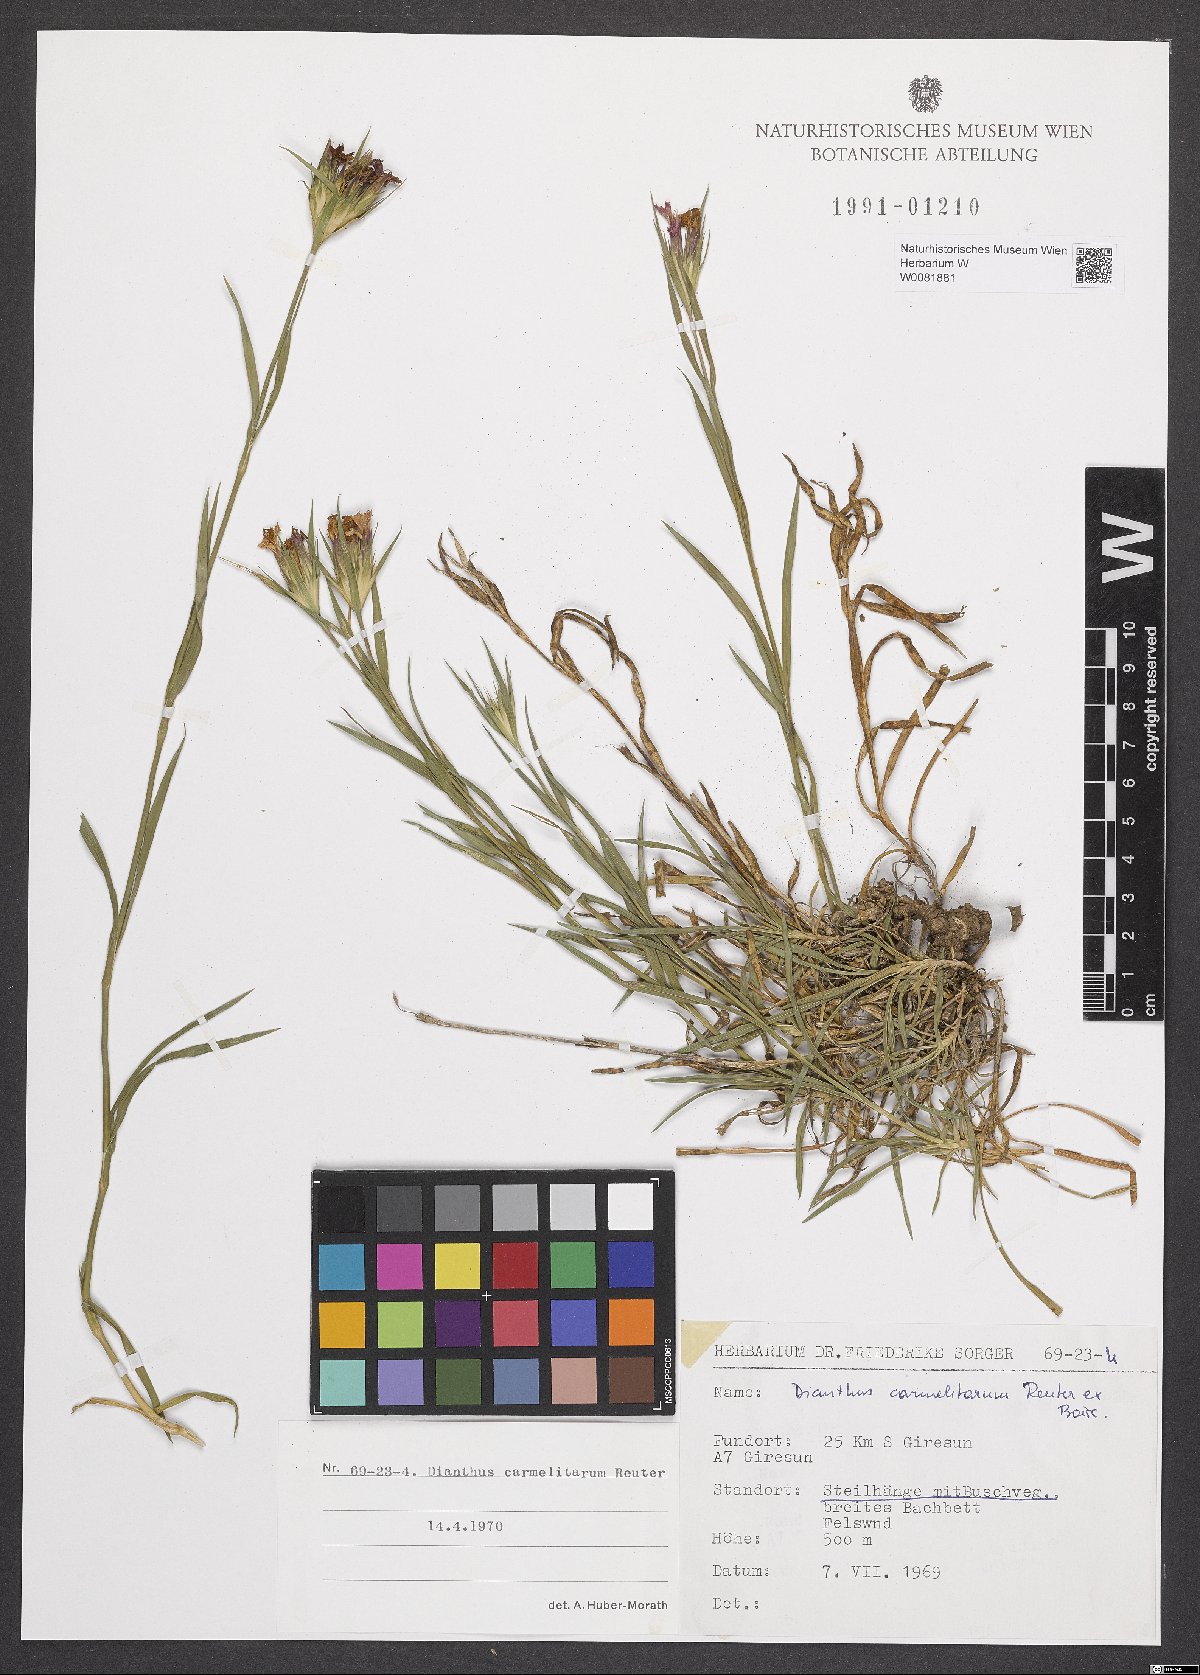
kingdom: Plantae
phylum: Tracheophyta
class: Magnoliopsida
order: Caryophyllales
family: Caryophyllaceae
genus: Dianthus
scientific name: Dianthus carmelitarum
